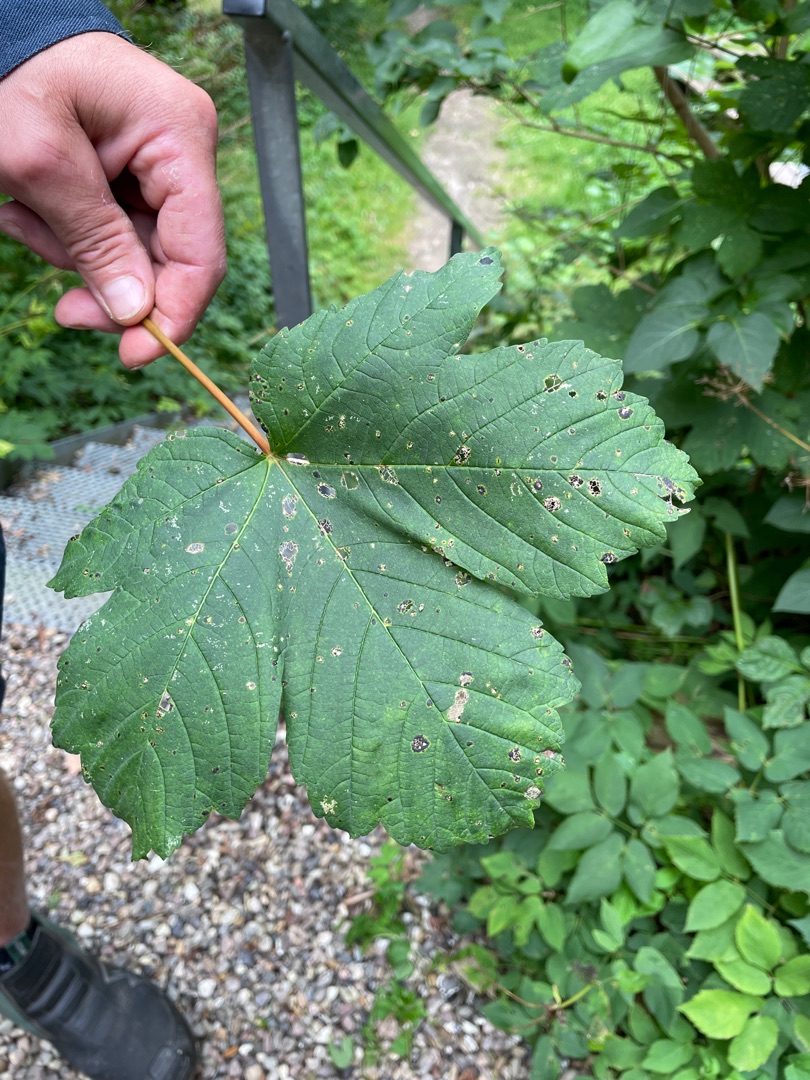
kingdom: Plantae
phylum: Tracheophyta
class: Magnoliopsida
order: Sapindales
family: Sapindaceae
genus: Acer
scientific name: Acer pseudoplatanus
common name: Ahorn
